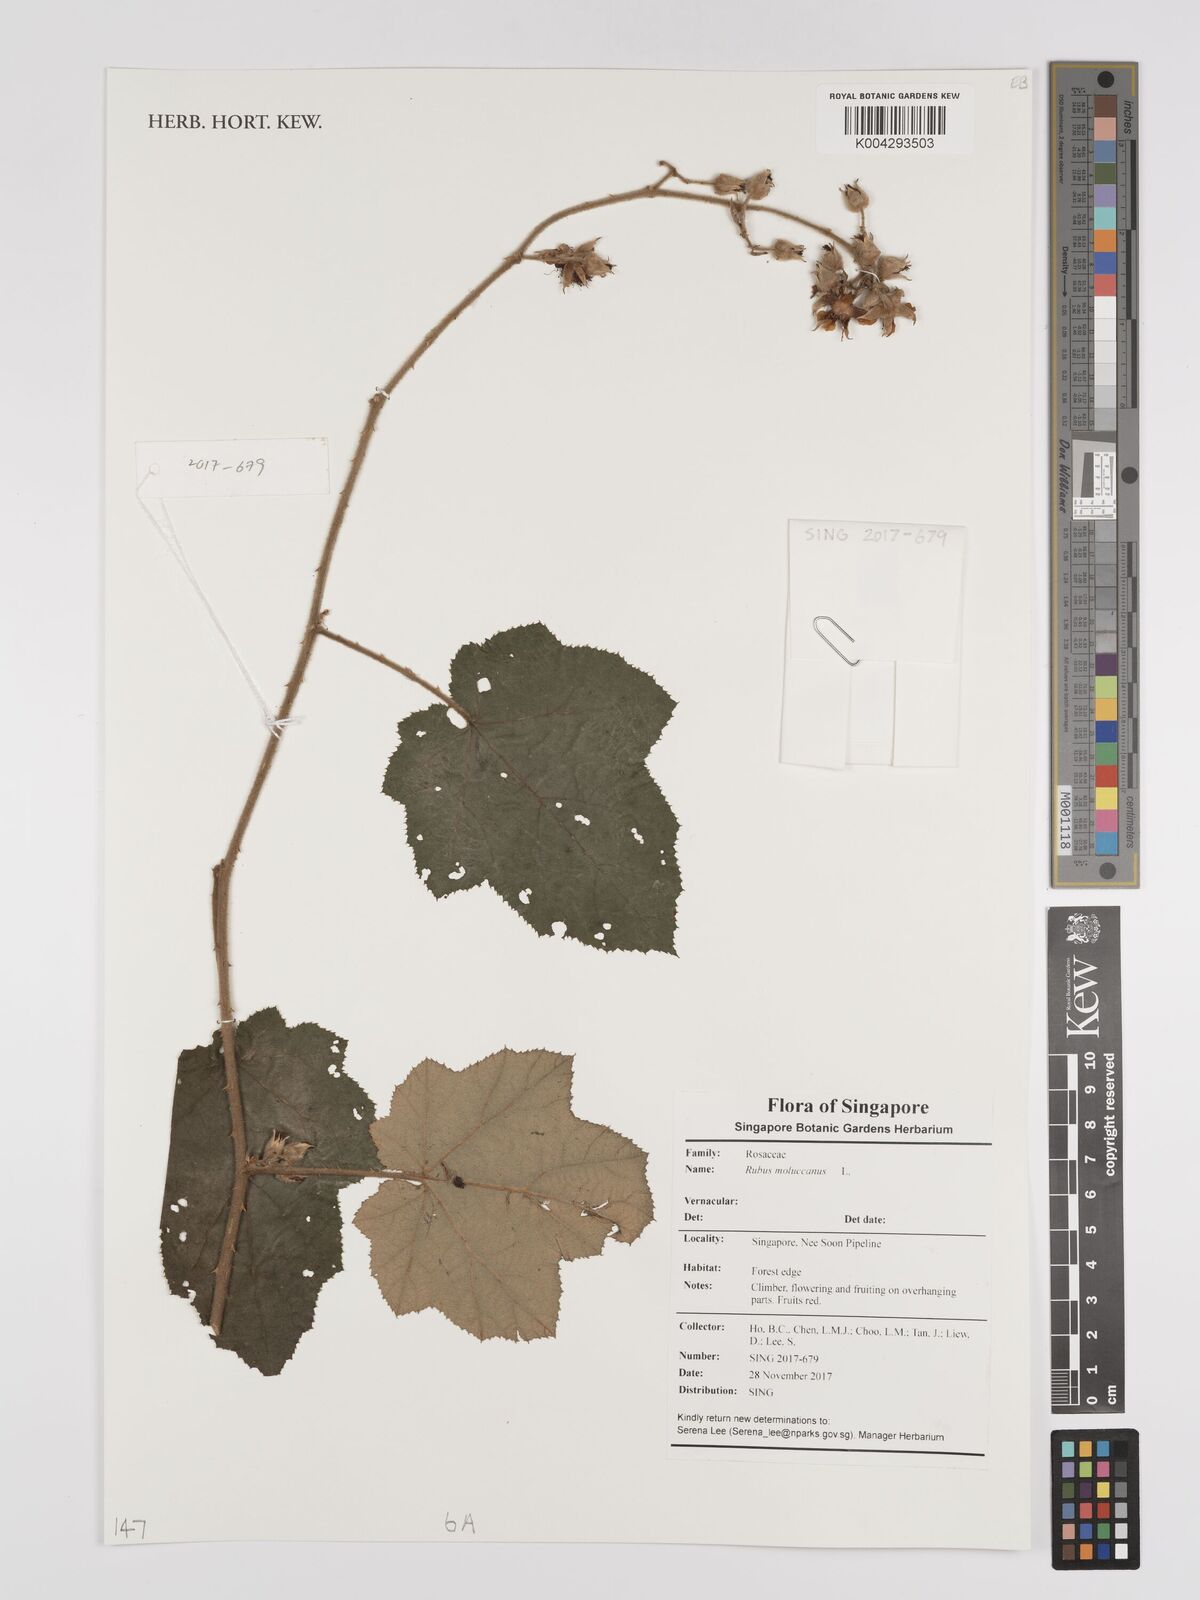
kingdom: Plantae
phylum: Tracheophyta
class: Magnoliopsida
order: Rosales
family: Rosaceae
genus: Rubus
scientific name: Rubus moluccanus
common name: Wild raspberry
